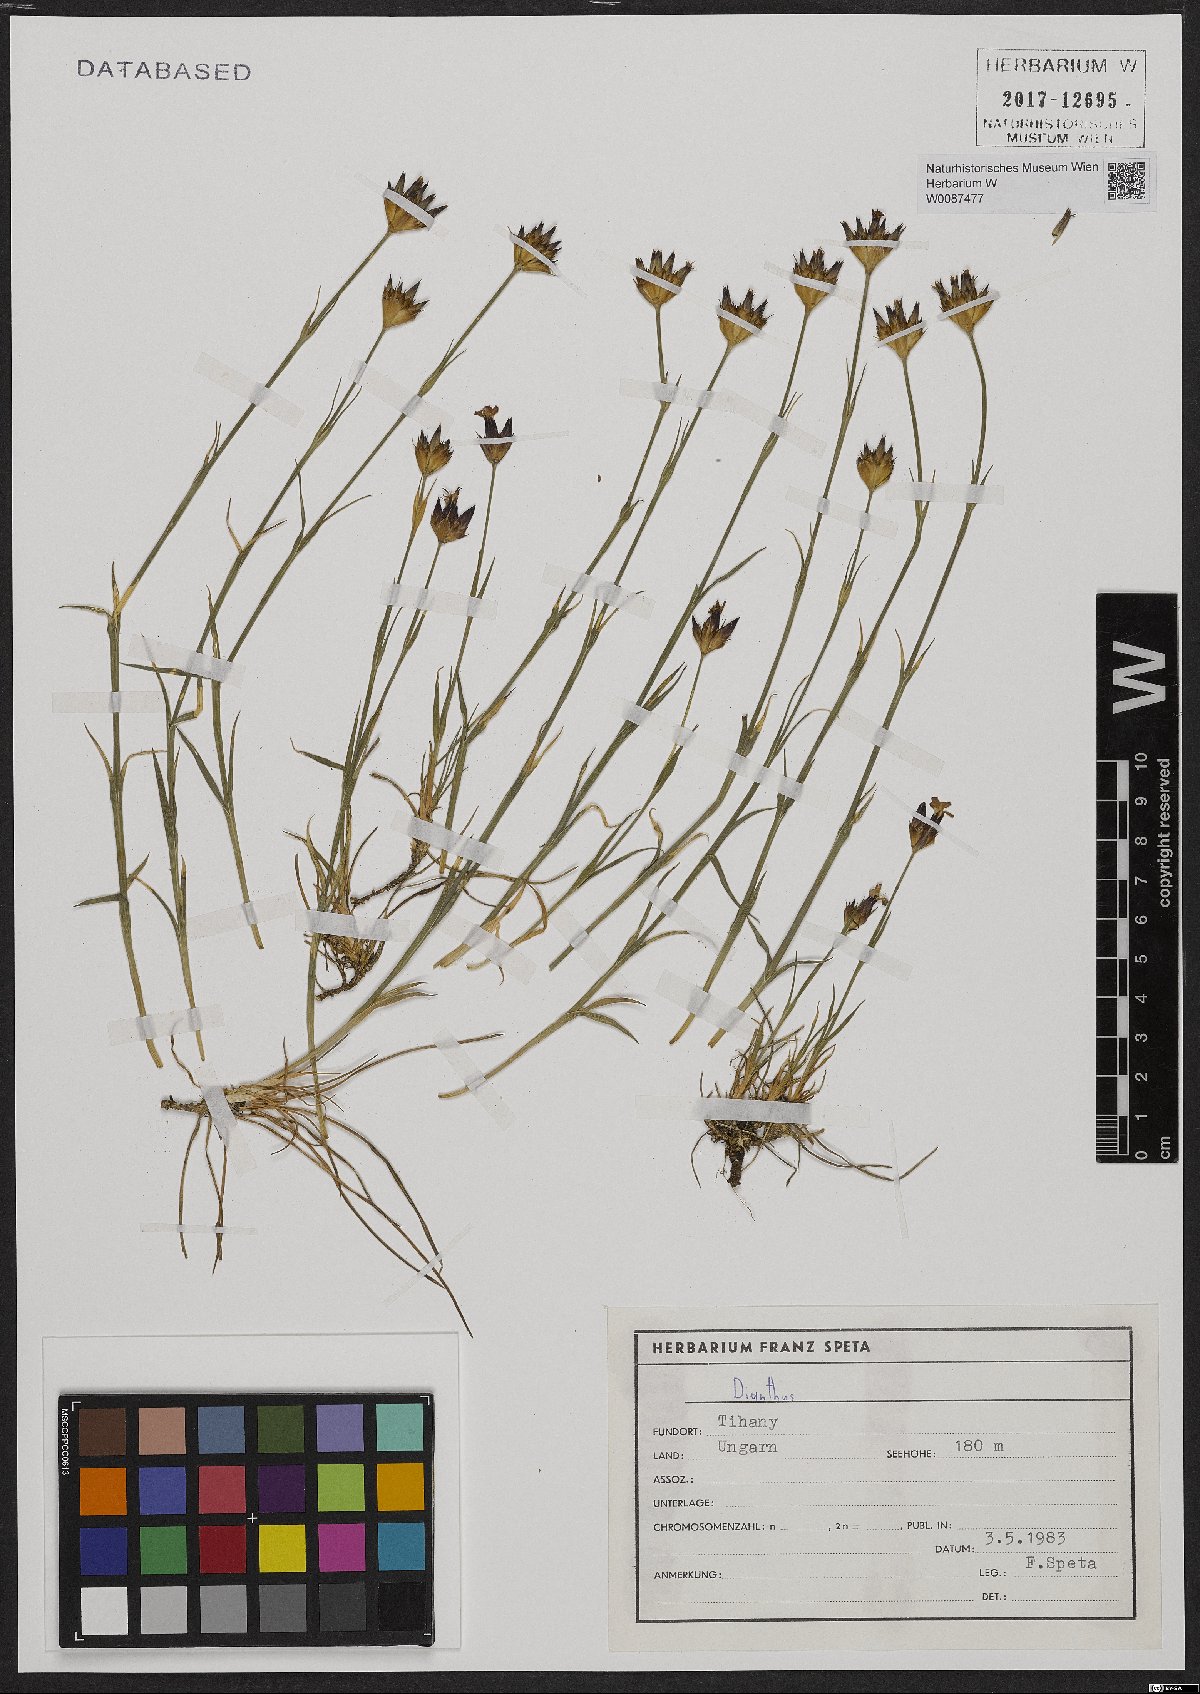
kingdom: Plantae
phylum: Tracheophyta
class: Magnoliopsida
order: Caryophyllales
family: Caryophyllaceae
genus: Dianthus
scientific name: Dianthus
